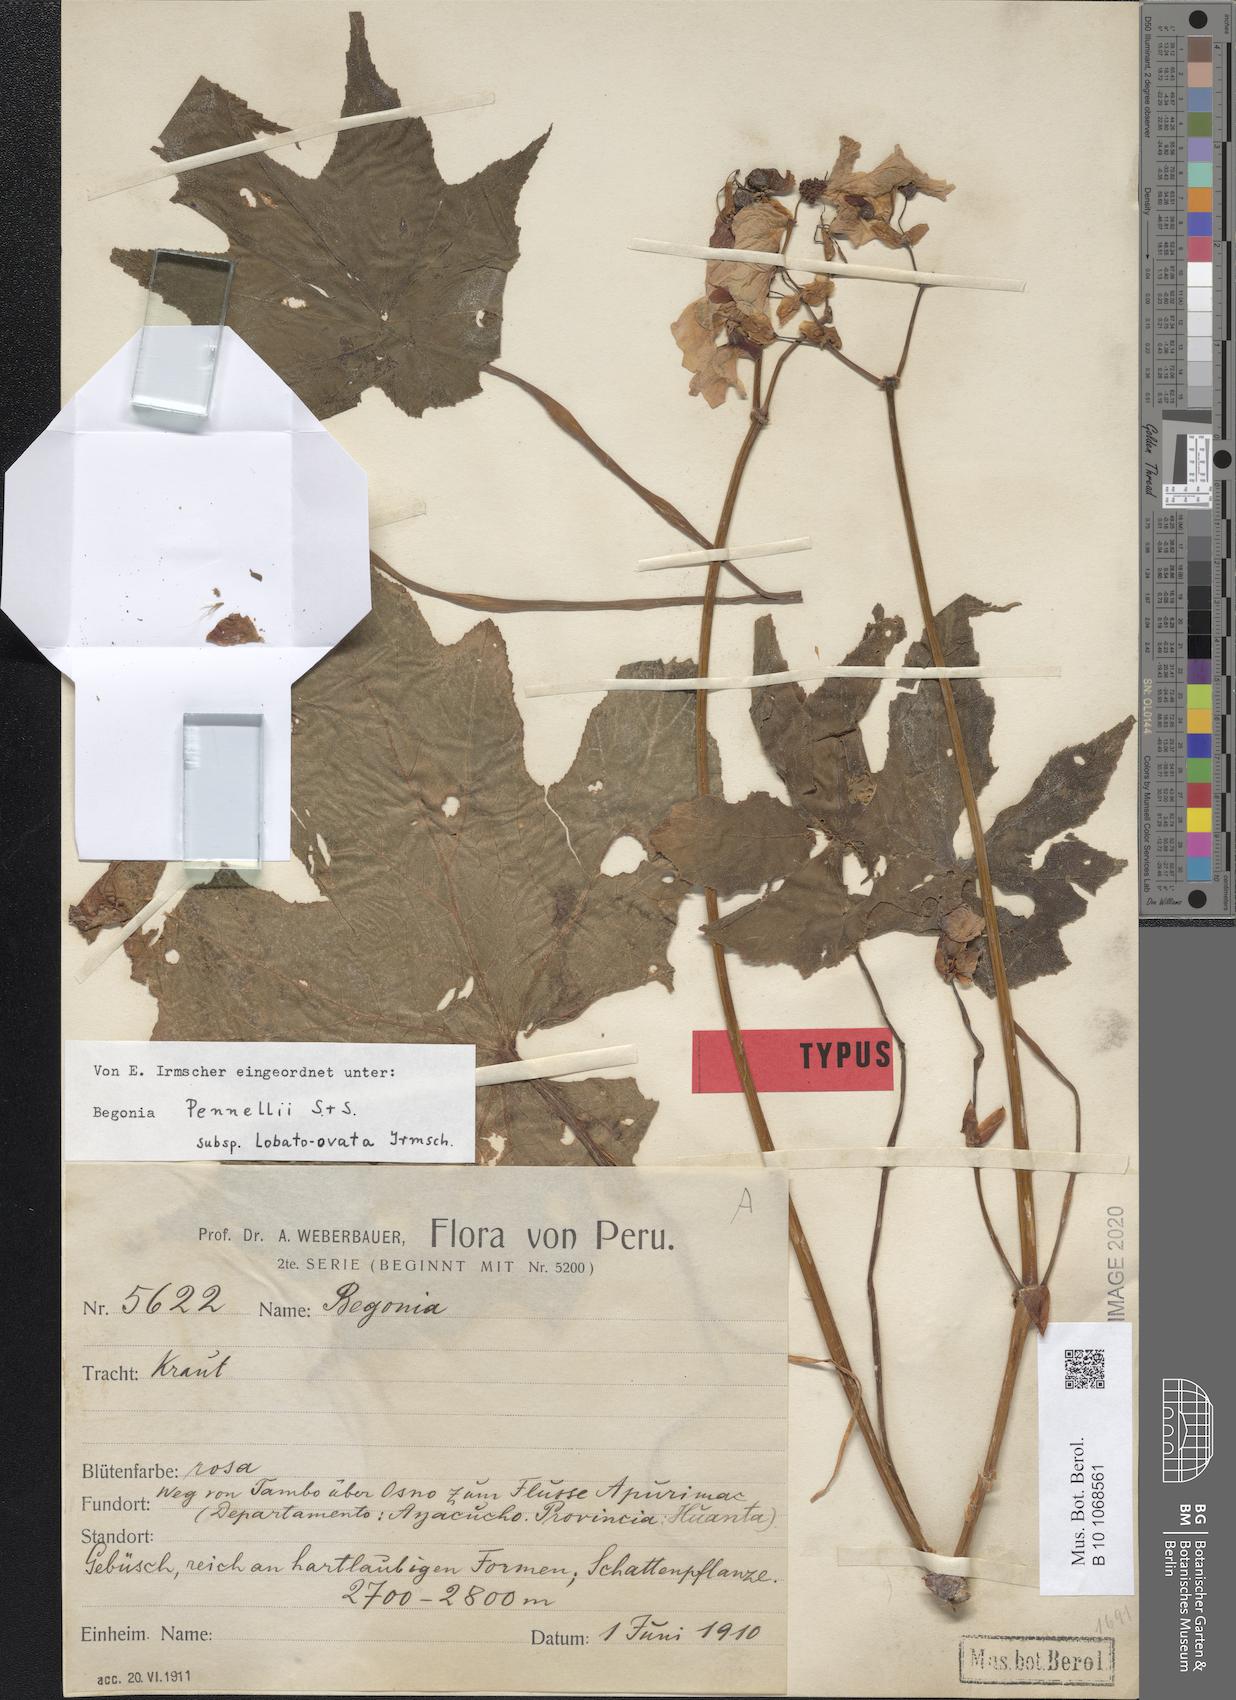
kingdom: Plantae
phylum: Tracheophyta
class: Magnoliopsida
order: Cucurbitales
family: Begoniaceae
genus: Begonia
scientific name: Begonia acerifolia
